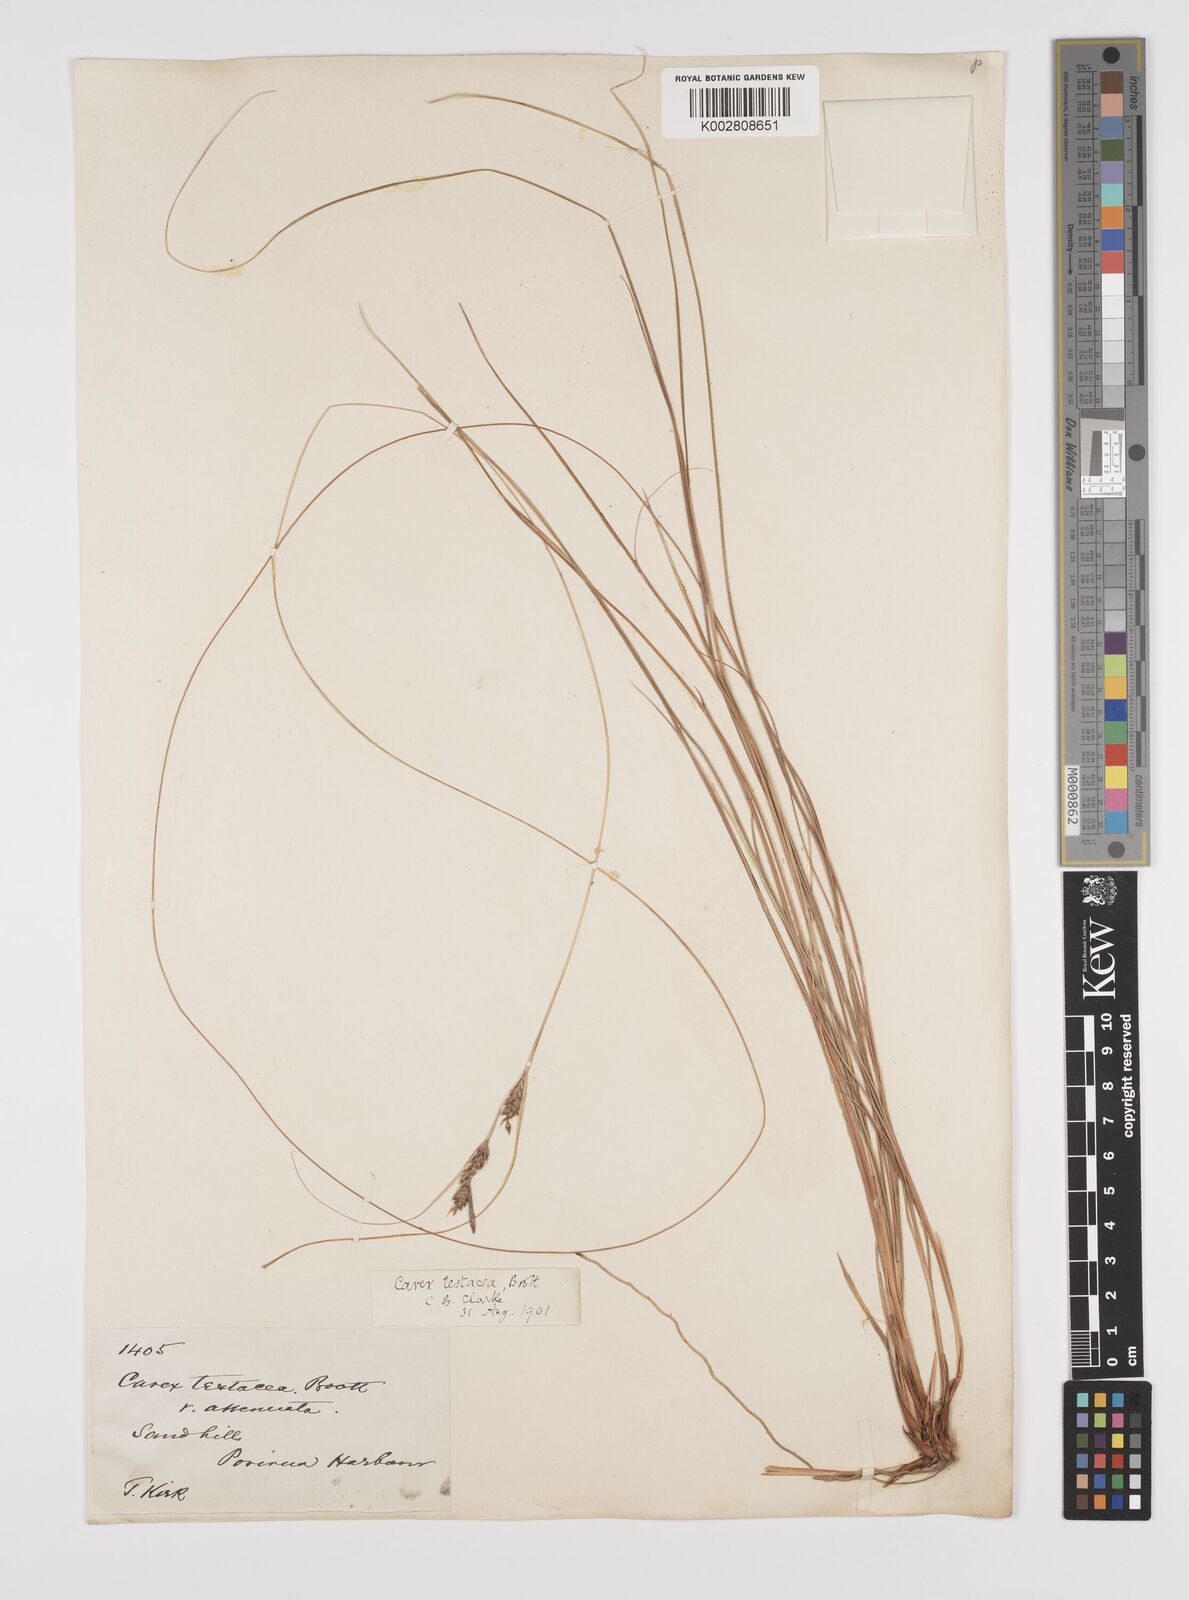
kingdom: Plantae
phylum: Tracheophyta
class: Liliopsida
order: Poales
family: Cyperaceae
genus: Carex
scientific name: Carex testacea
